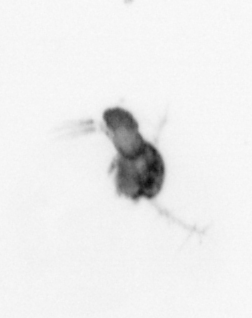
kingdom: Animalia
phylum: Arthropoda
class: Copepoda
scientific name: Copepoda
